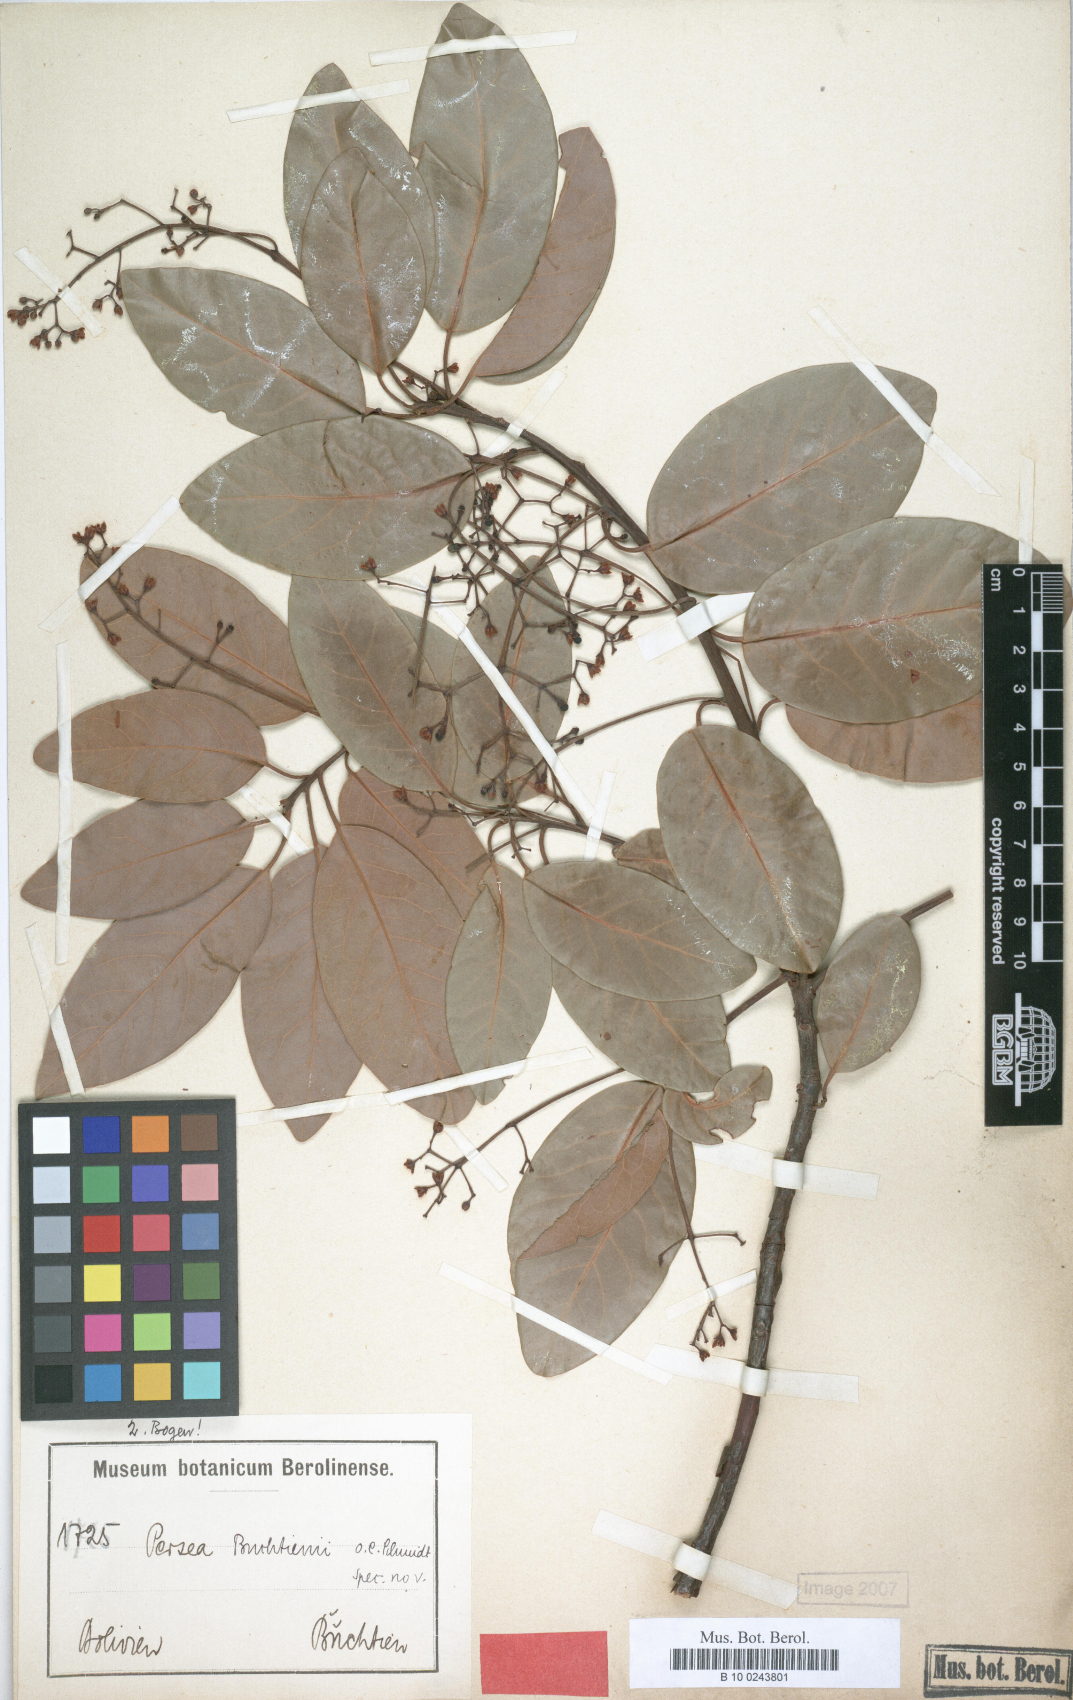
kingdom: Plantae
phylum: Tracheophyta
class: Magnoliopsida
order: Laurales
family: Lauraceae
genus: Persea
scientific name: Persea buchtienii
